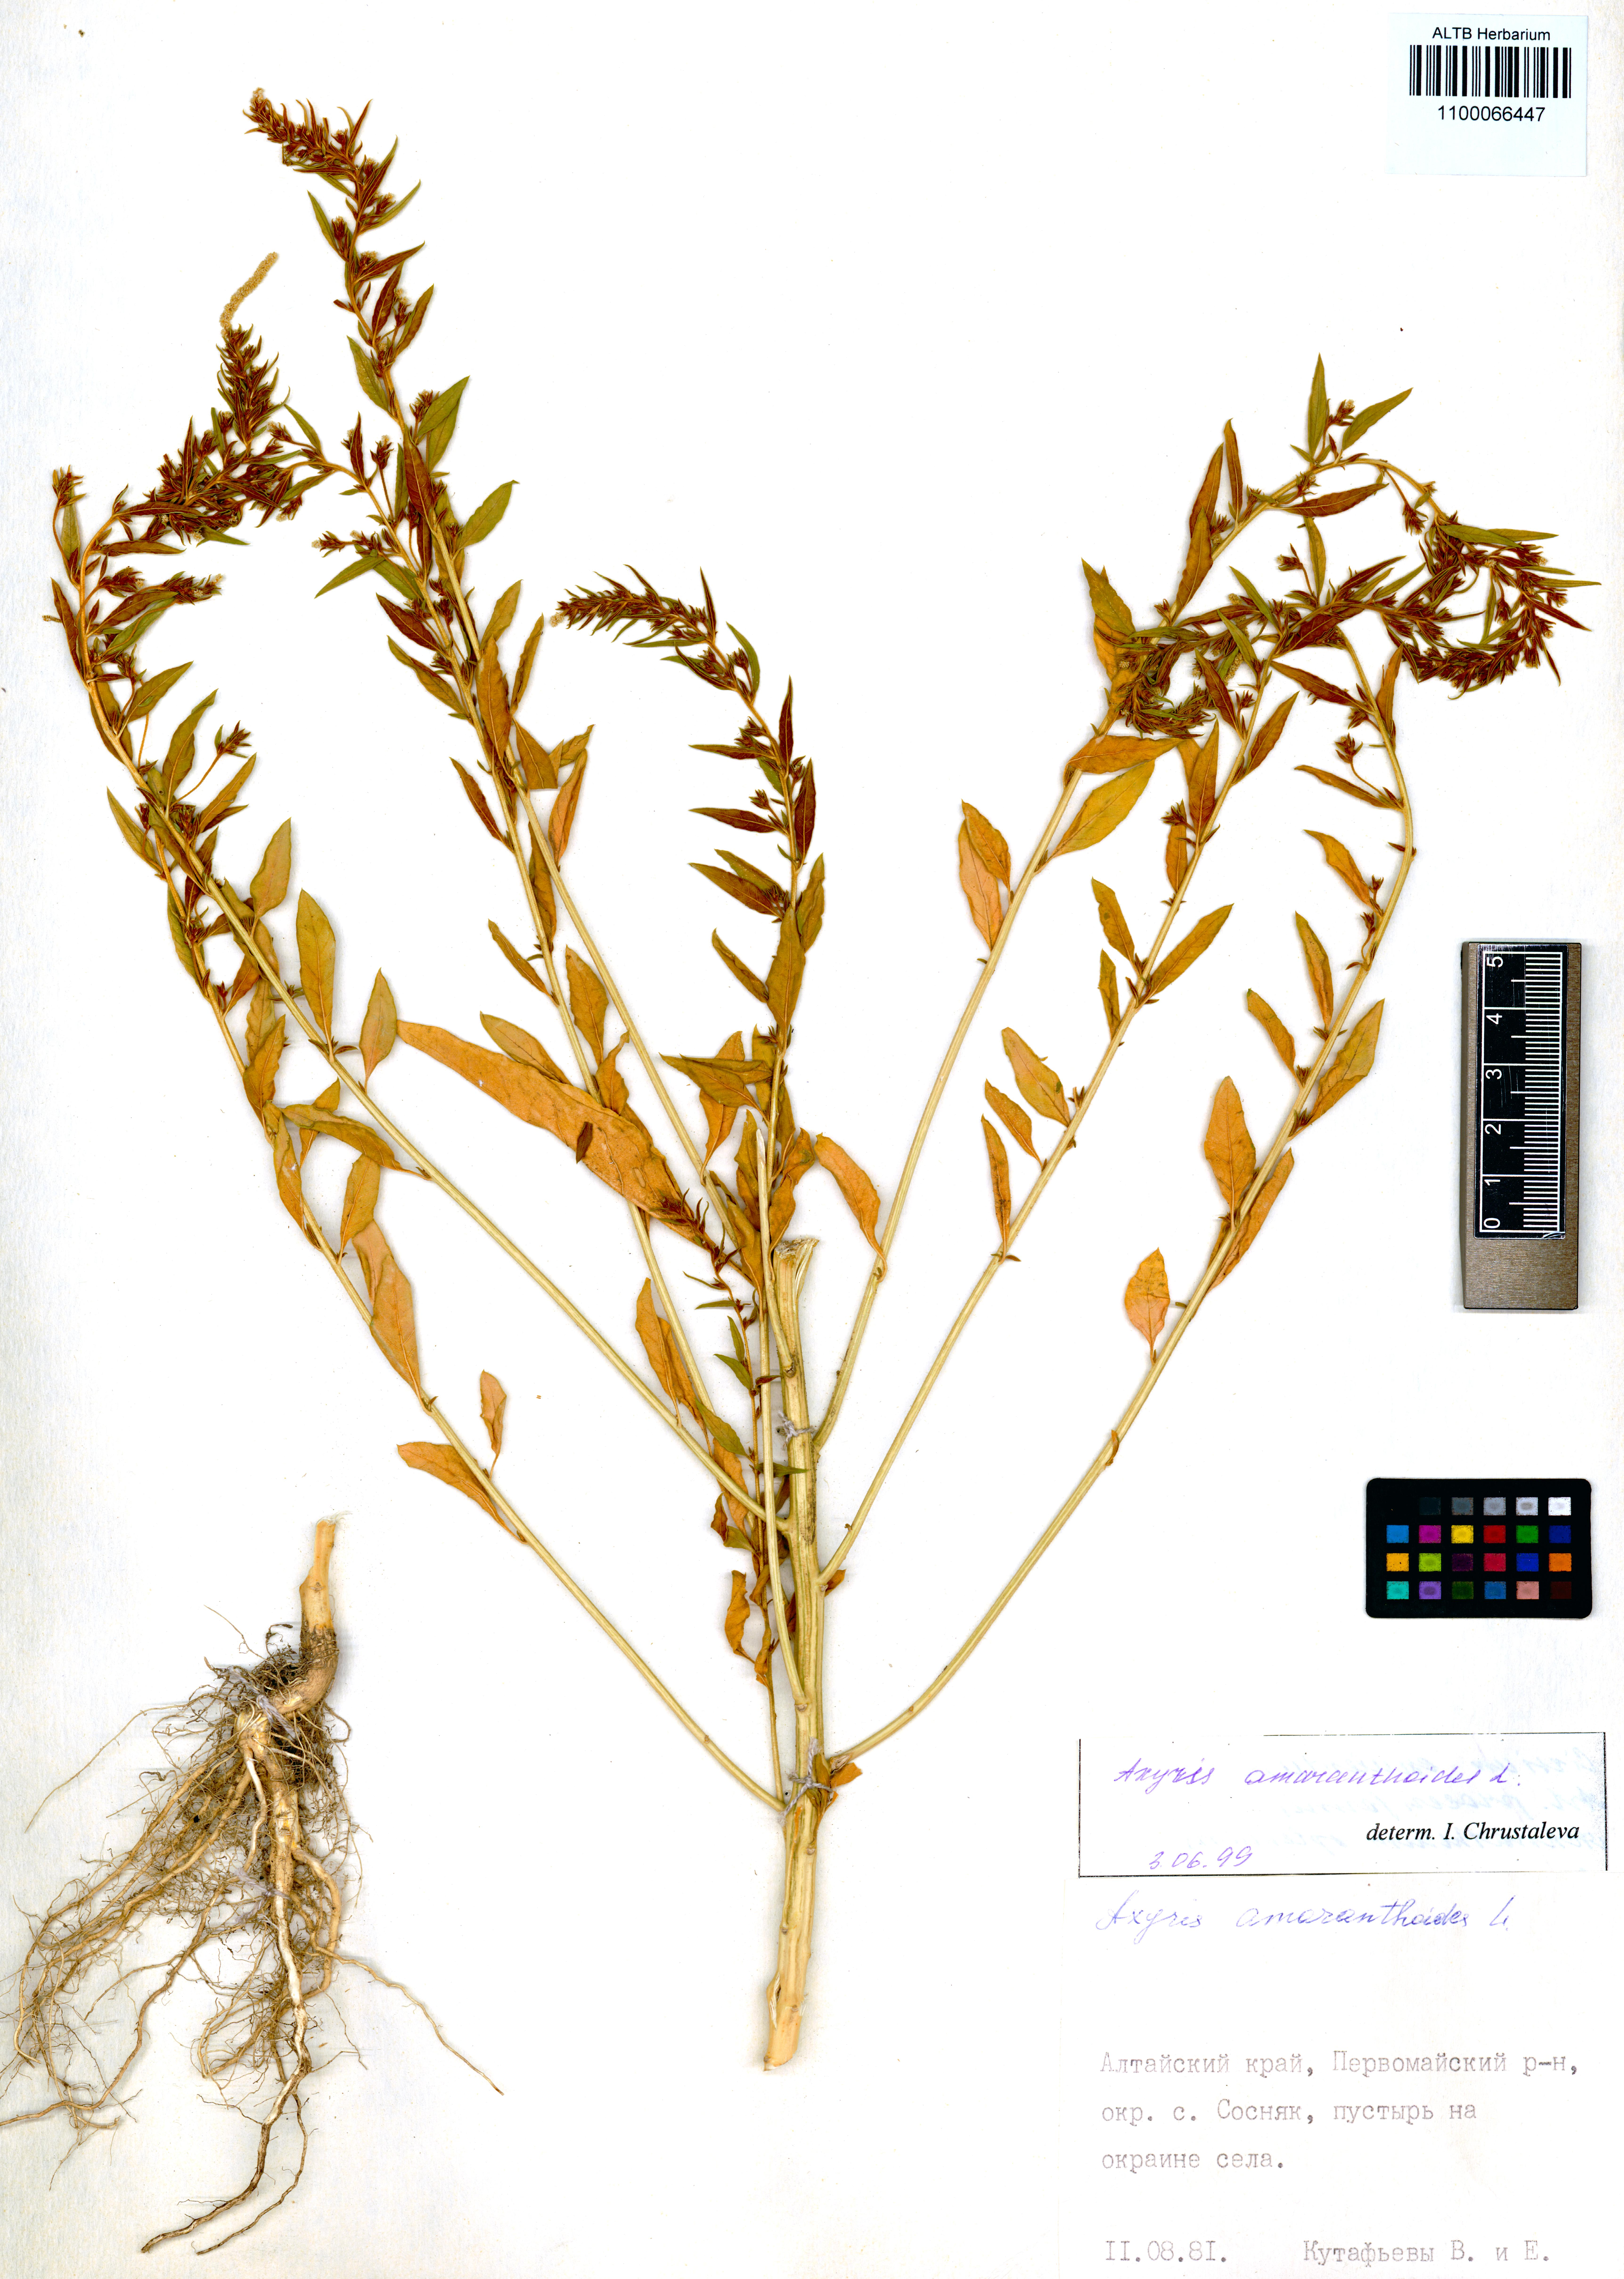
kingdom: Plantae
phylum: Tracheophyta
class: Magnoliopsida
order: Caryophyllales
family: Amaranthaceae
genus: Axyris
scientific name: Axyris amaranthoides
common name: Russian pigweed
